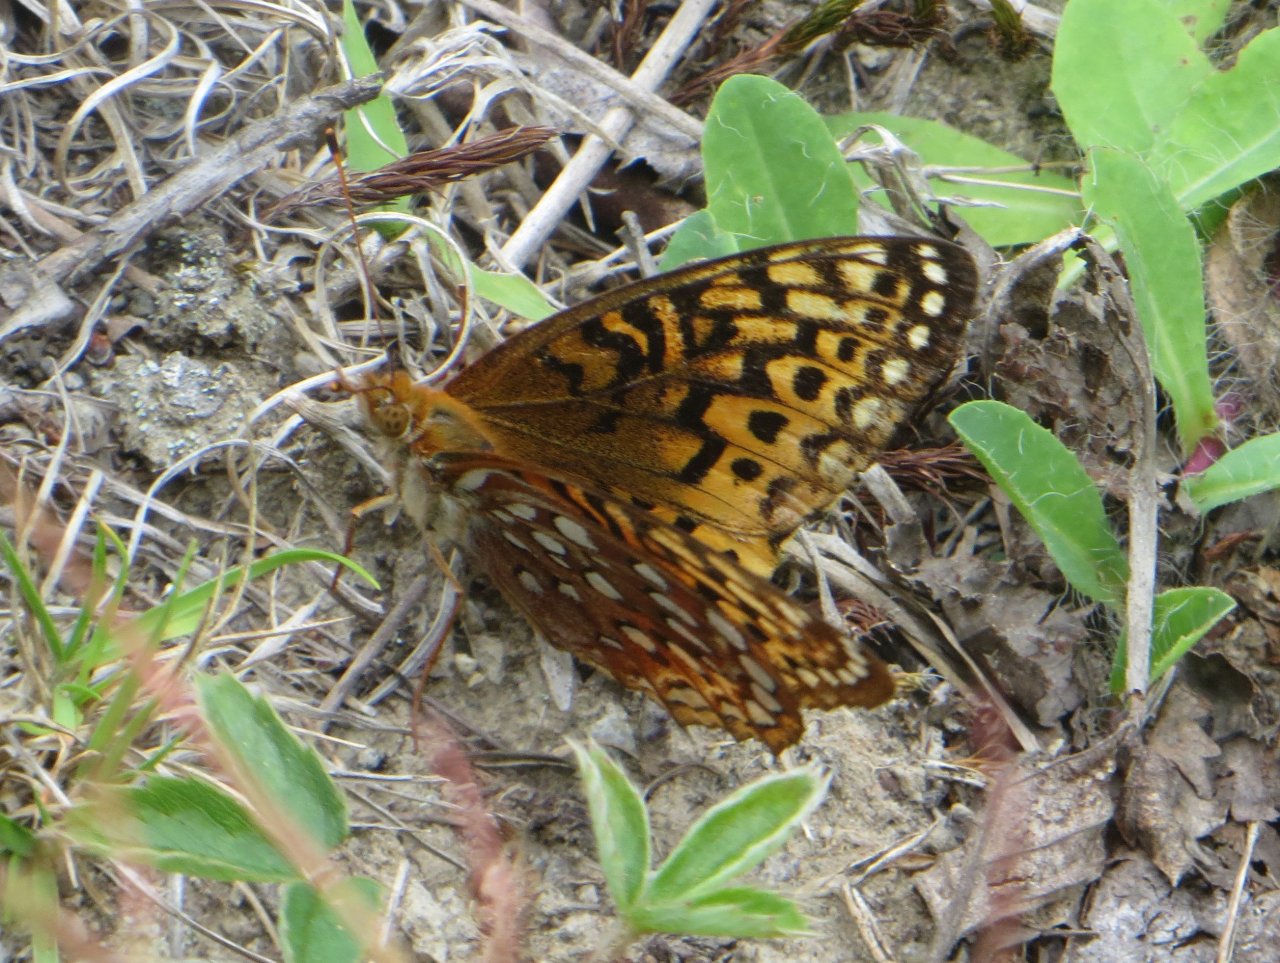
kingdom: Animalia
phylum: Arthropoda
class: Insecta
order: Lepidoptera
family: Nymphalidae
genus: Speyeria
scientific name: Speyeria aphrodite
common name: Aphrodite Fritillary
